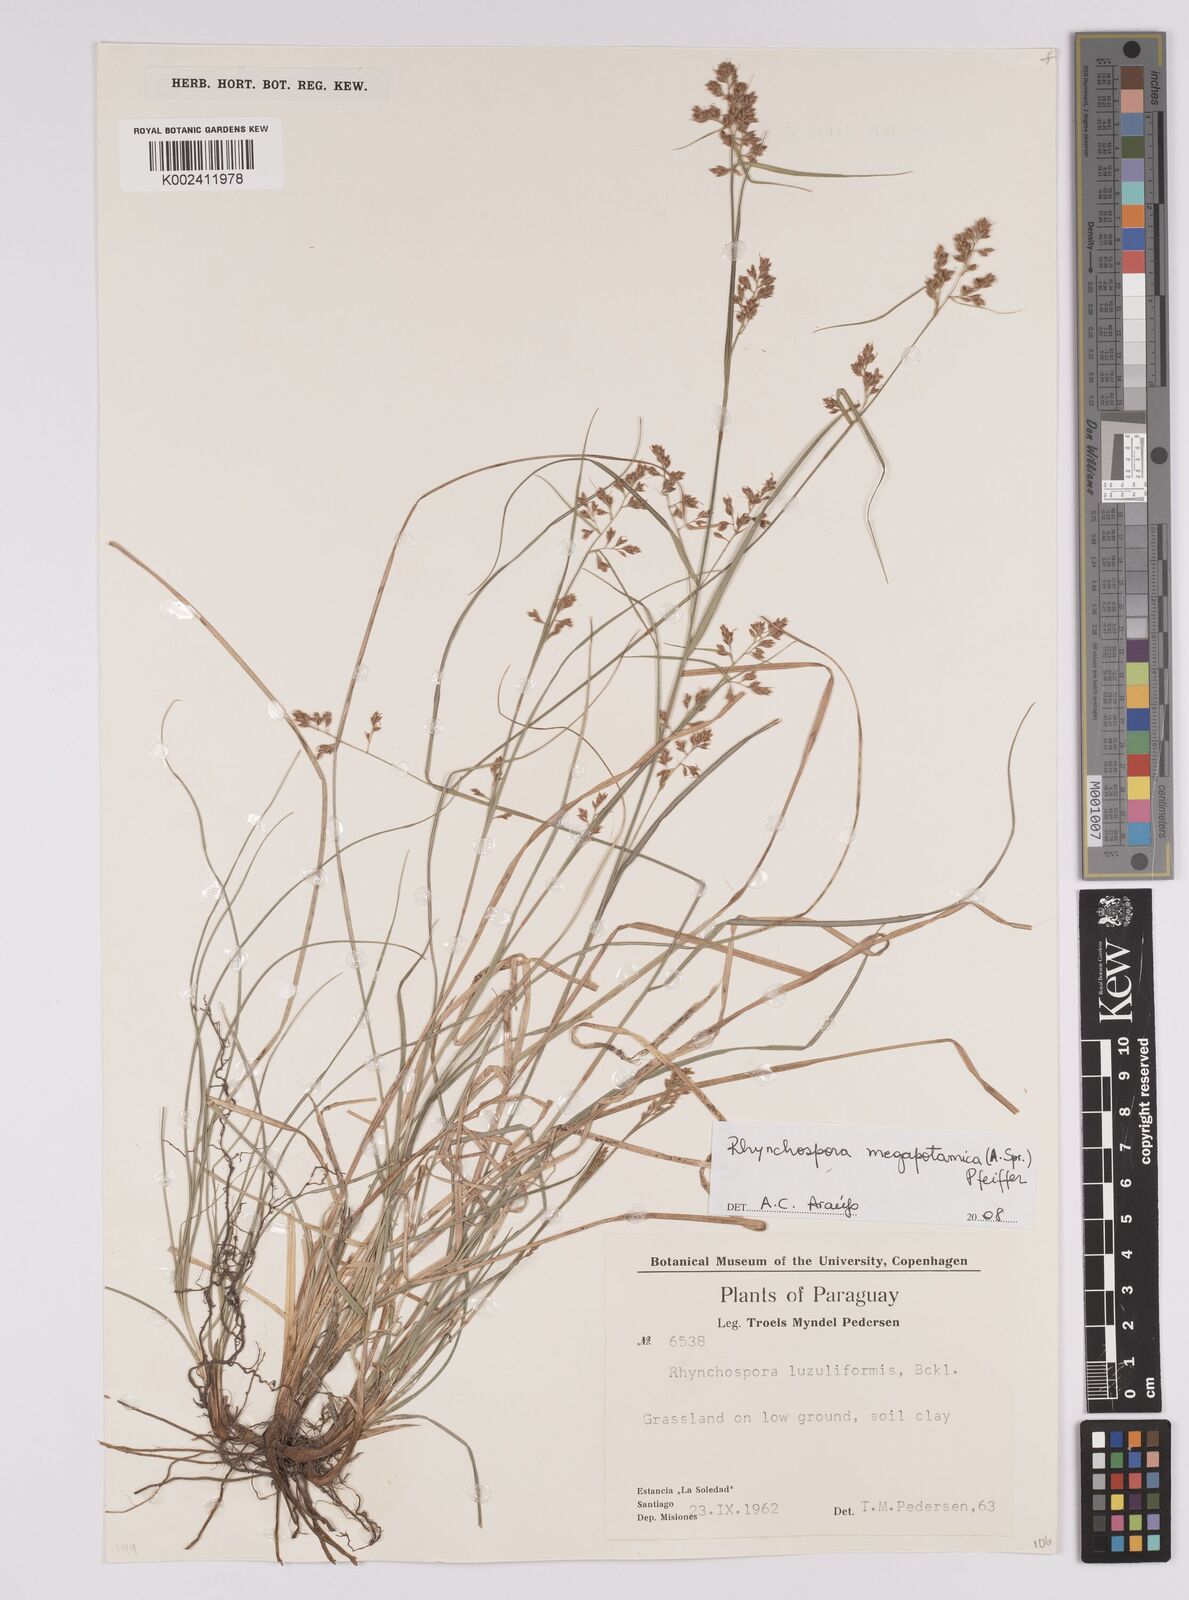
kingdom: Plantae
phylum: Tracheophyta
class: Liliopsida
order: Poales
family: Cyperaceae
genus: Rhynchospora
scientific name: Rhynchospora megalocarpa
